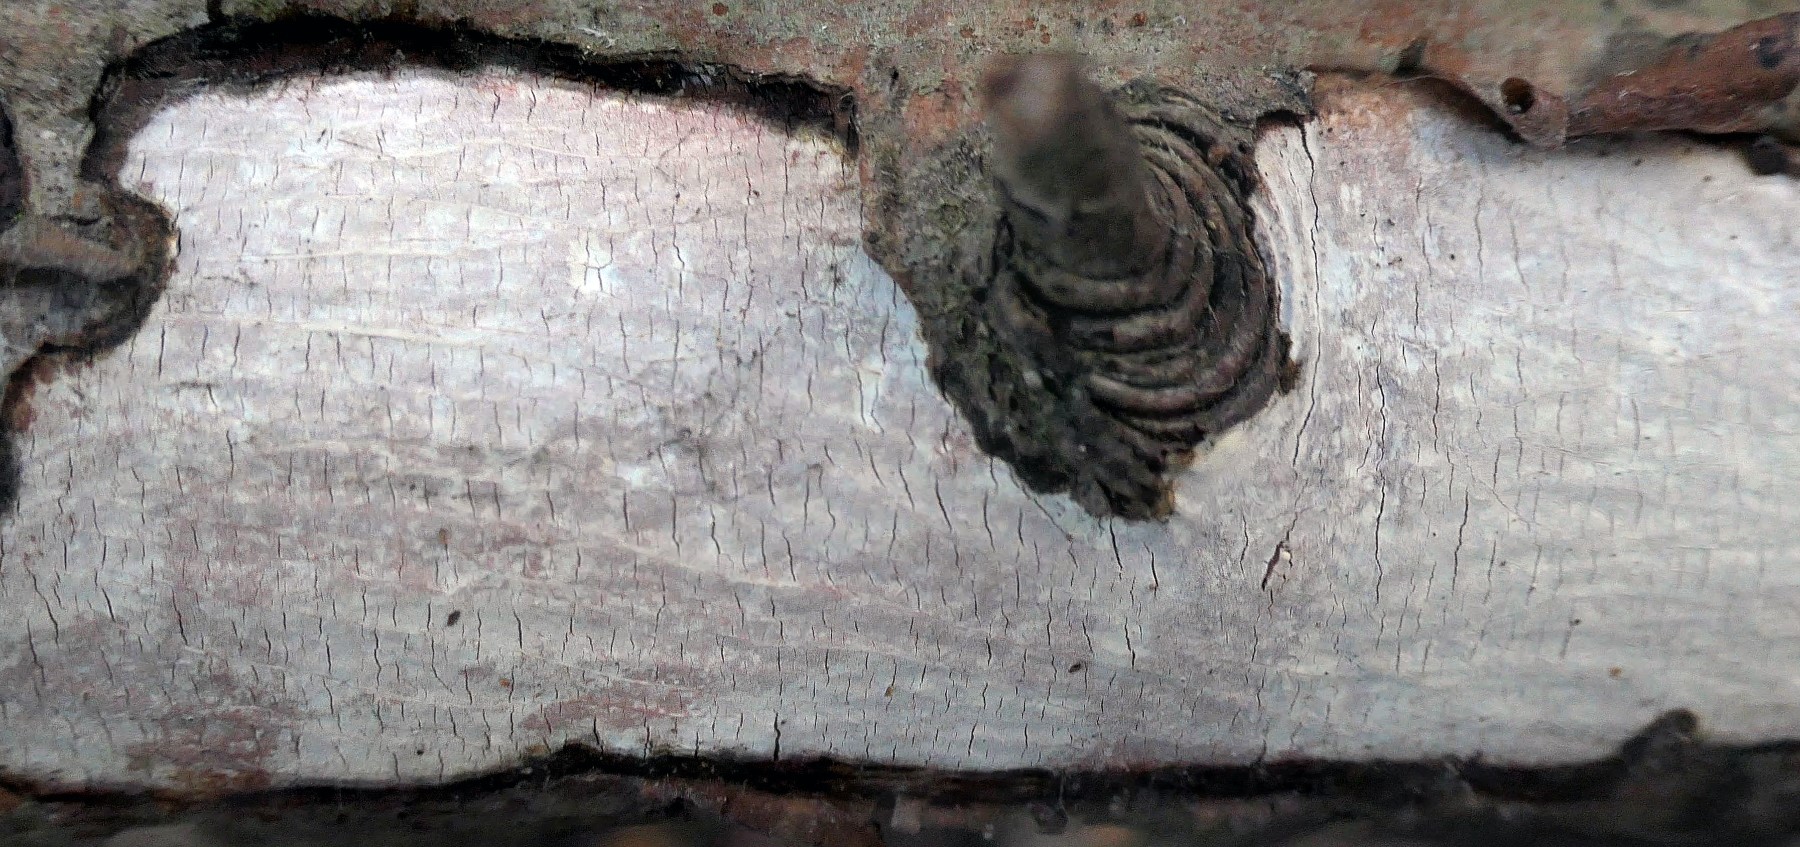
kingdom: Fungi
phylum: Basidiomycota
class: Agaricomycetes
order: Corticiales
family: Vuilleminiaceae
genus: Vuilleminia
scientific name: Vuilleminia cystidiata
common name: tjørne-barksprænger
